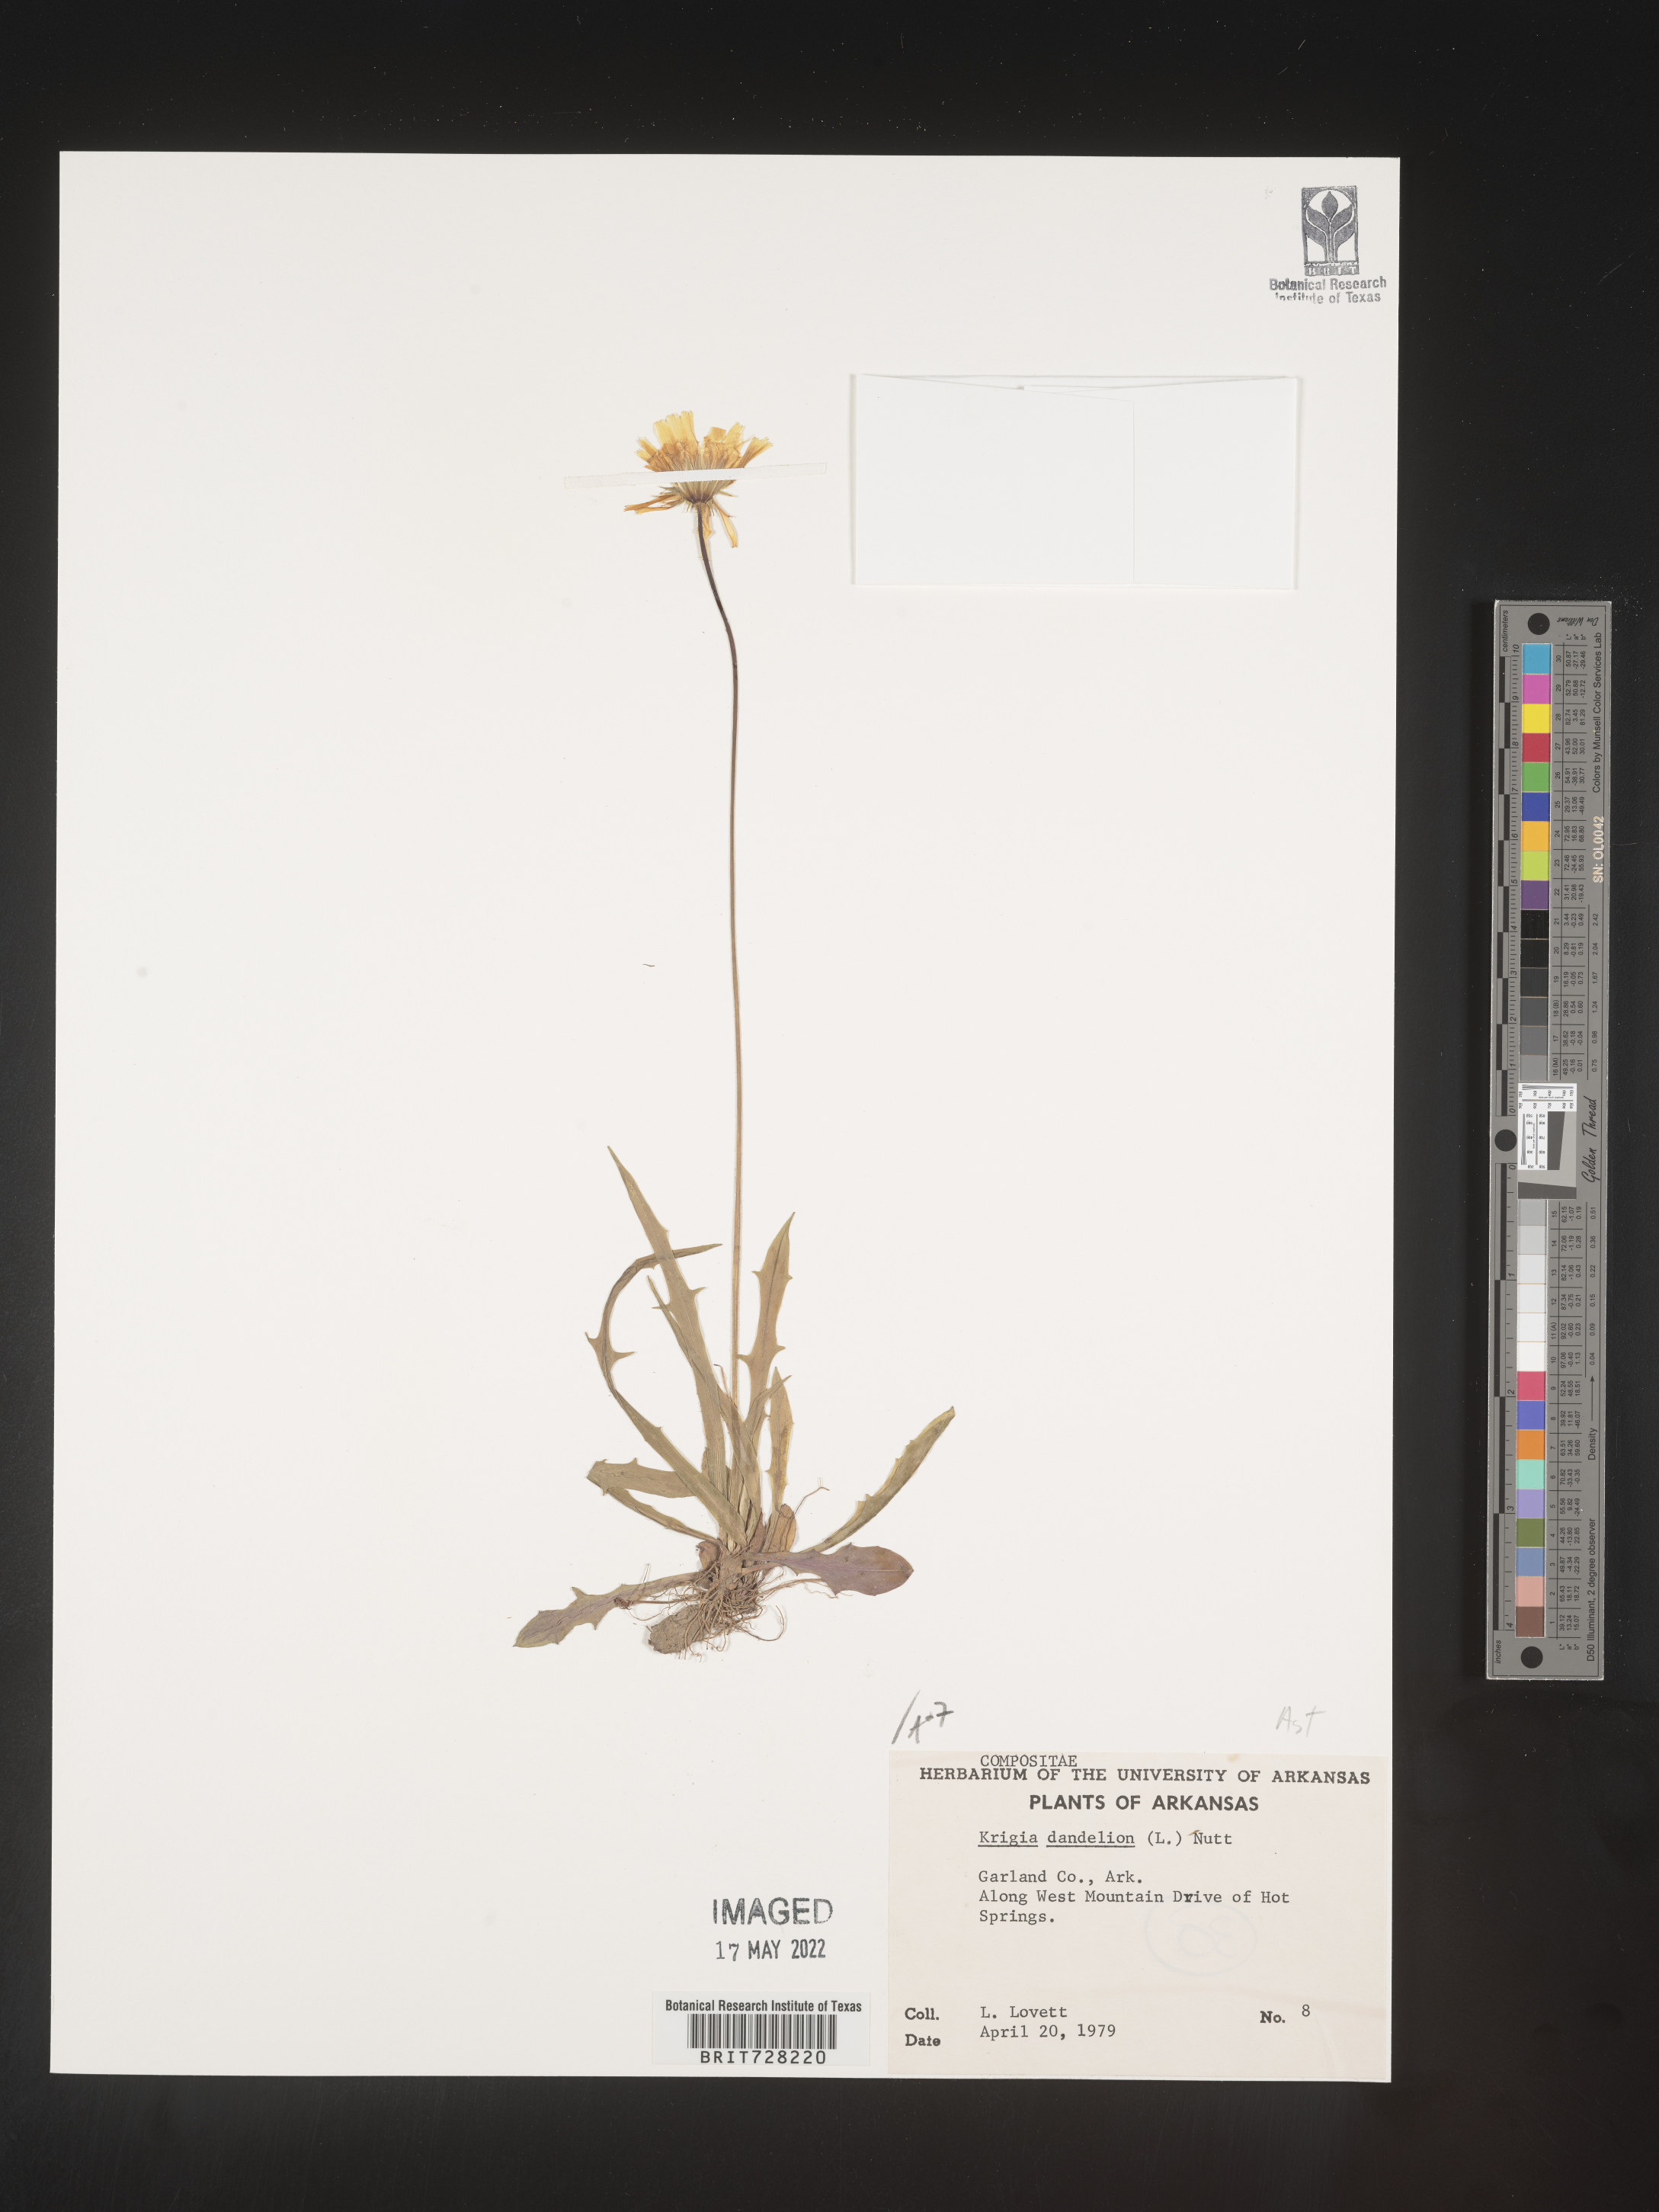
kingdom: Plantae
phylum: Tracheophyta
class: Magnoliopsida
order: Asterales
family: Asteraceae
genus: Krigia
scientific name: Krigia dandelion
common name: Colonial dwarf-dandelion
